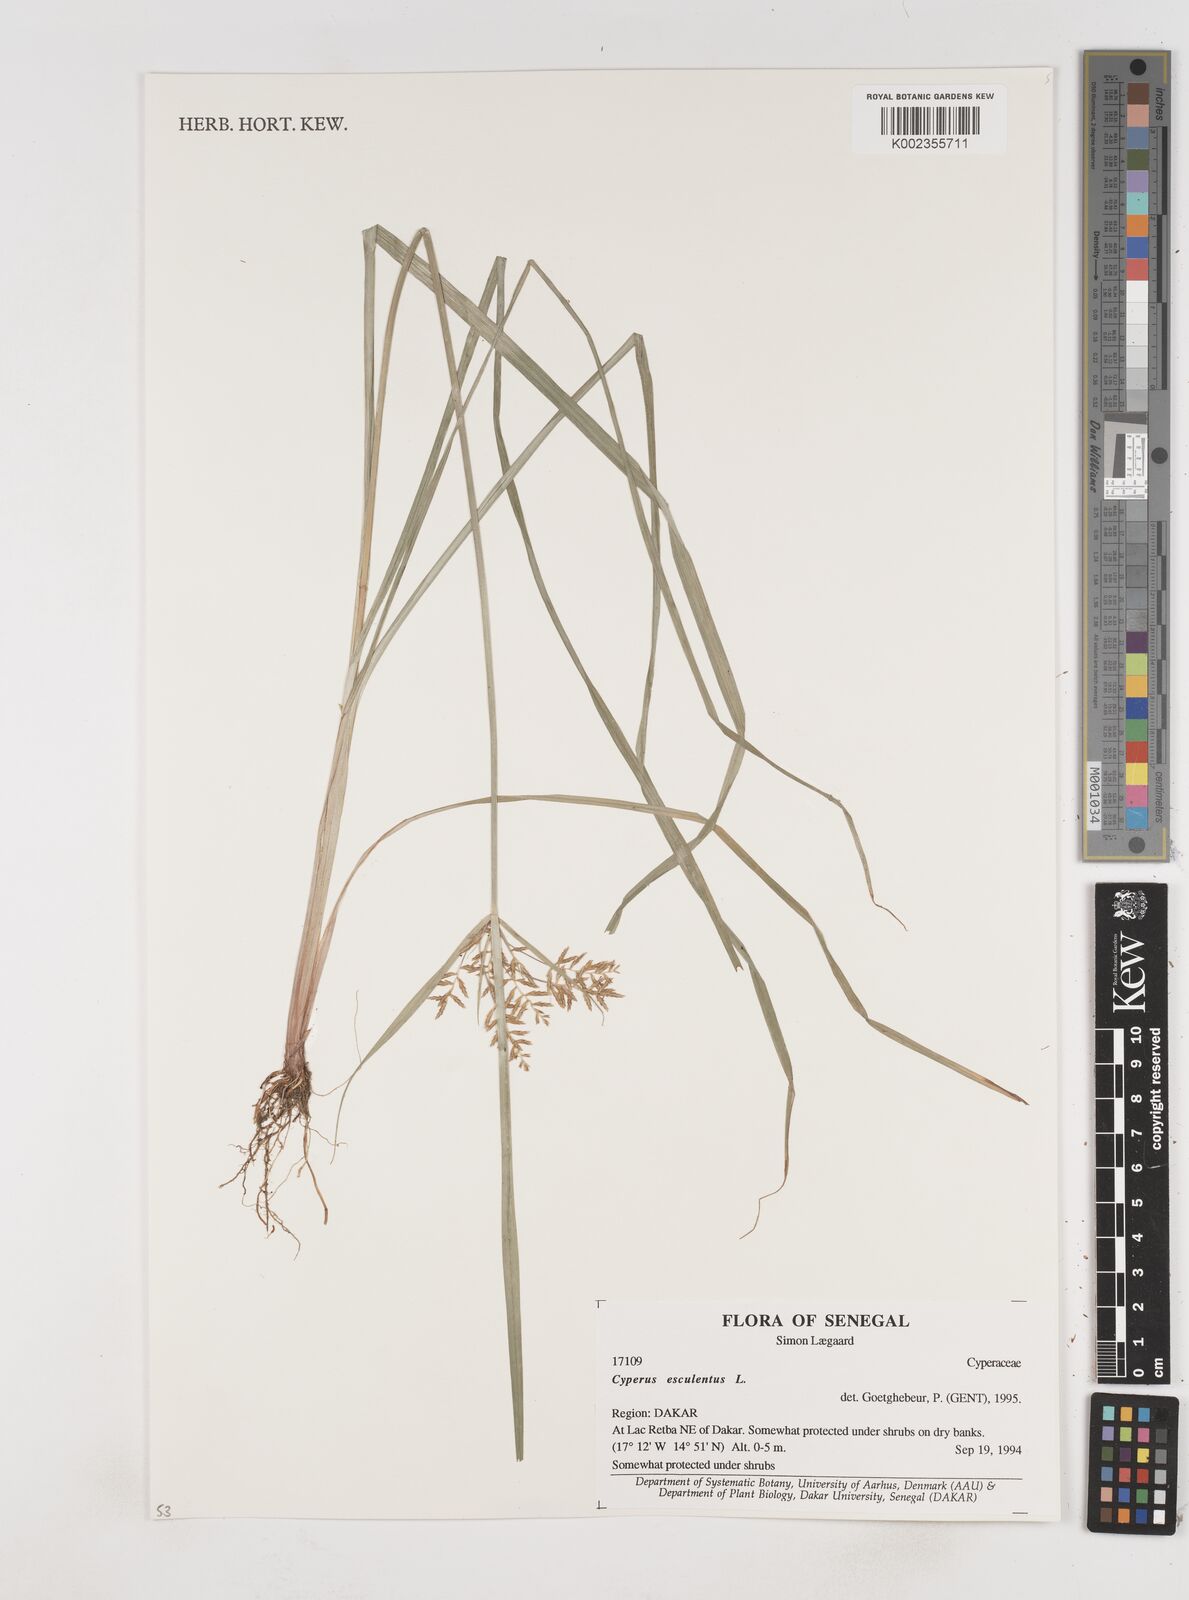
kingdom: Plantae
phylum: Tracheophyta
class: Liliopsida
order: Poales
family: Cyperaceae
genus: Cyperus
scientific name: Cyperus esculentus
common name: Yellow nutsedge
